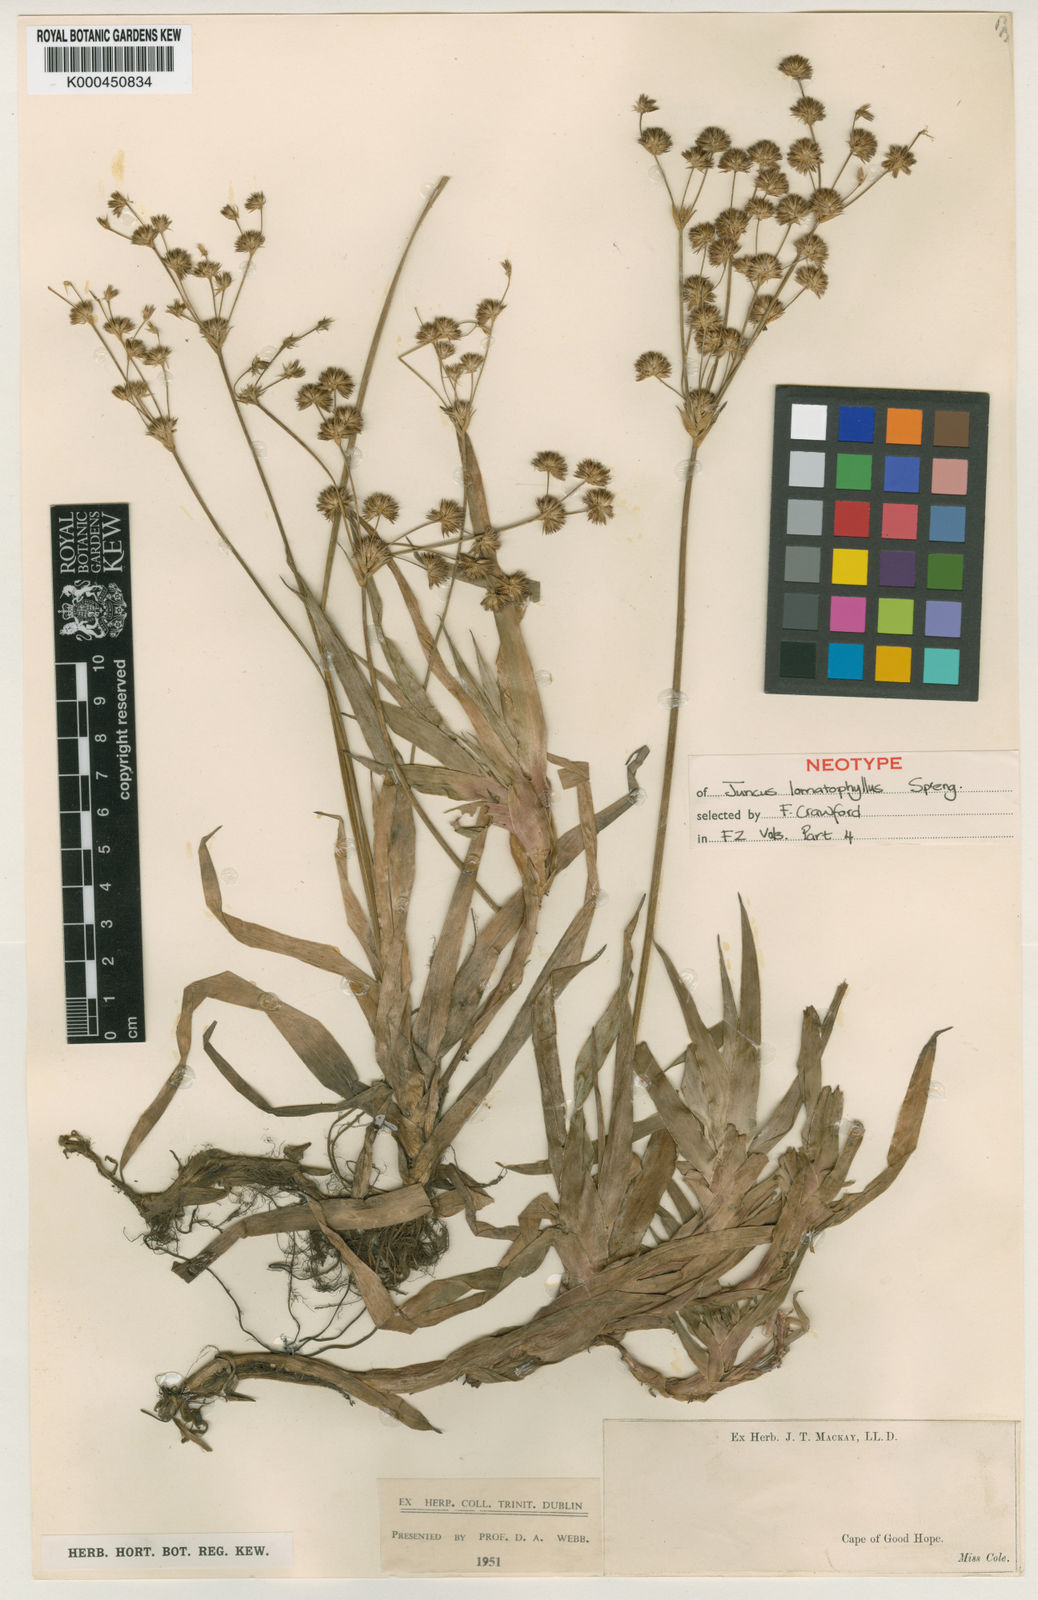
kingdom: Plantae
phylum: Tracheophyta
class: Liliopsida
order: Poales
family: Juncaceae
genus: Juncus
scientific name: Juncus lomatophyllus
